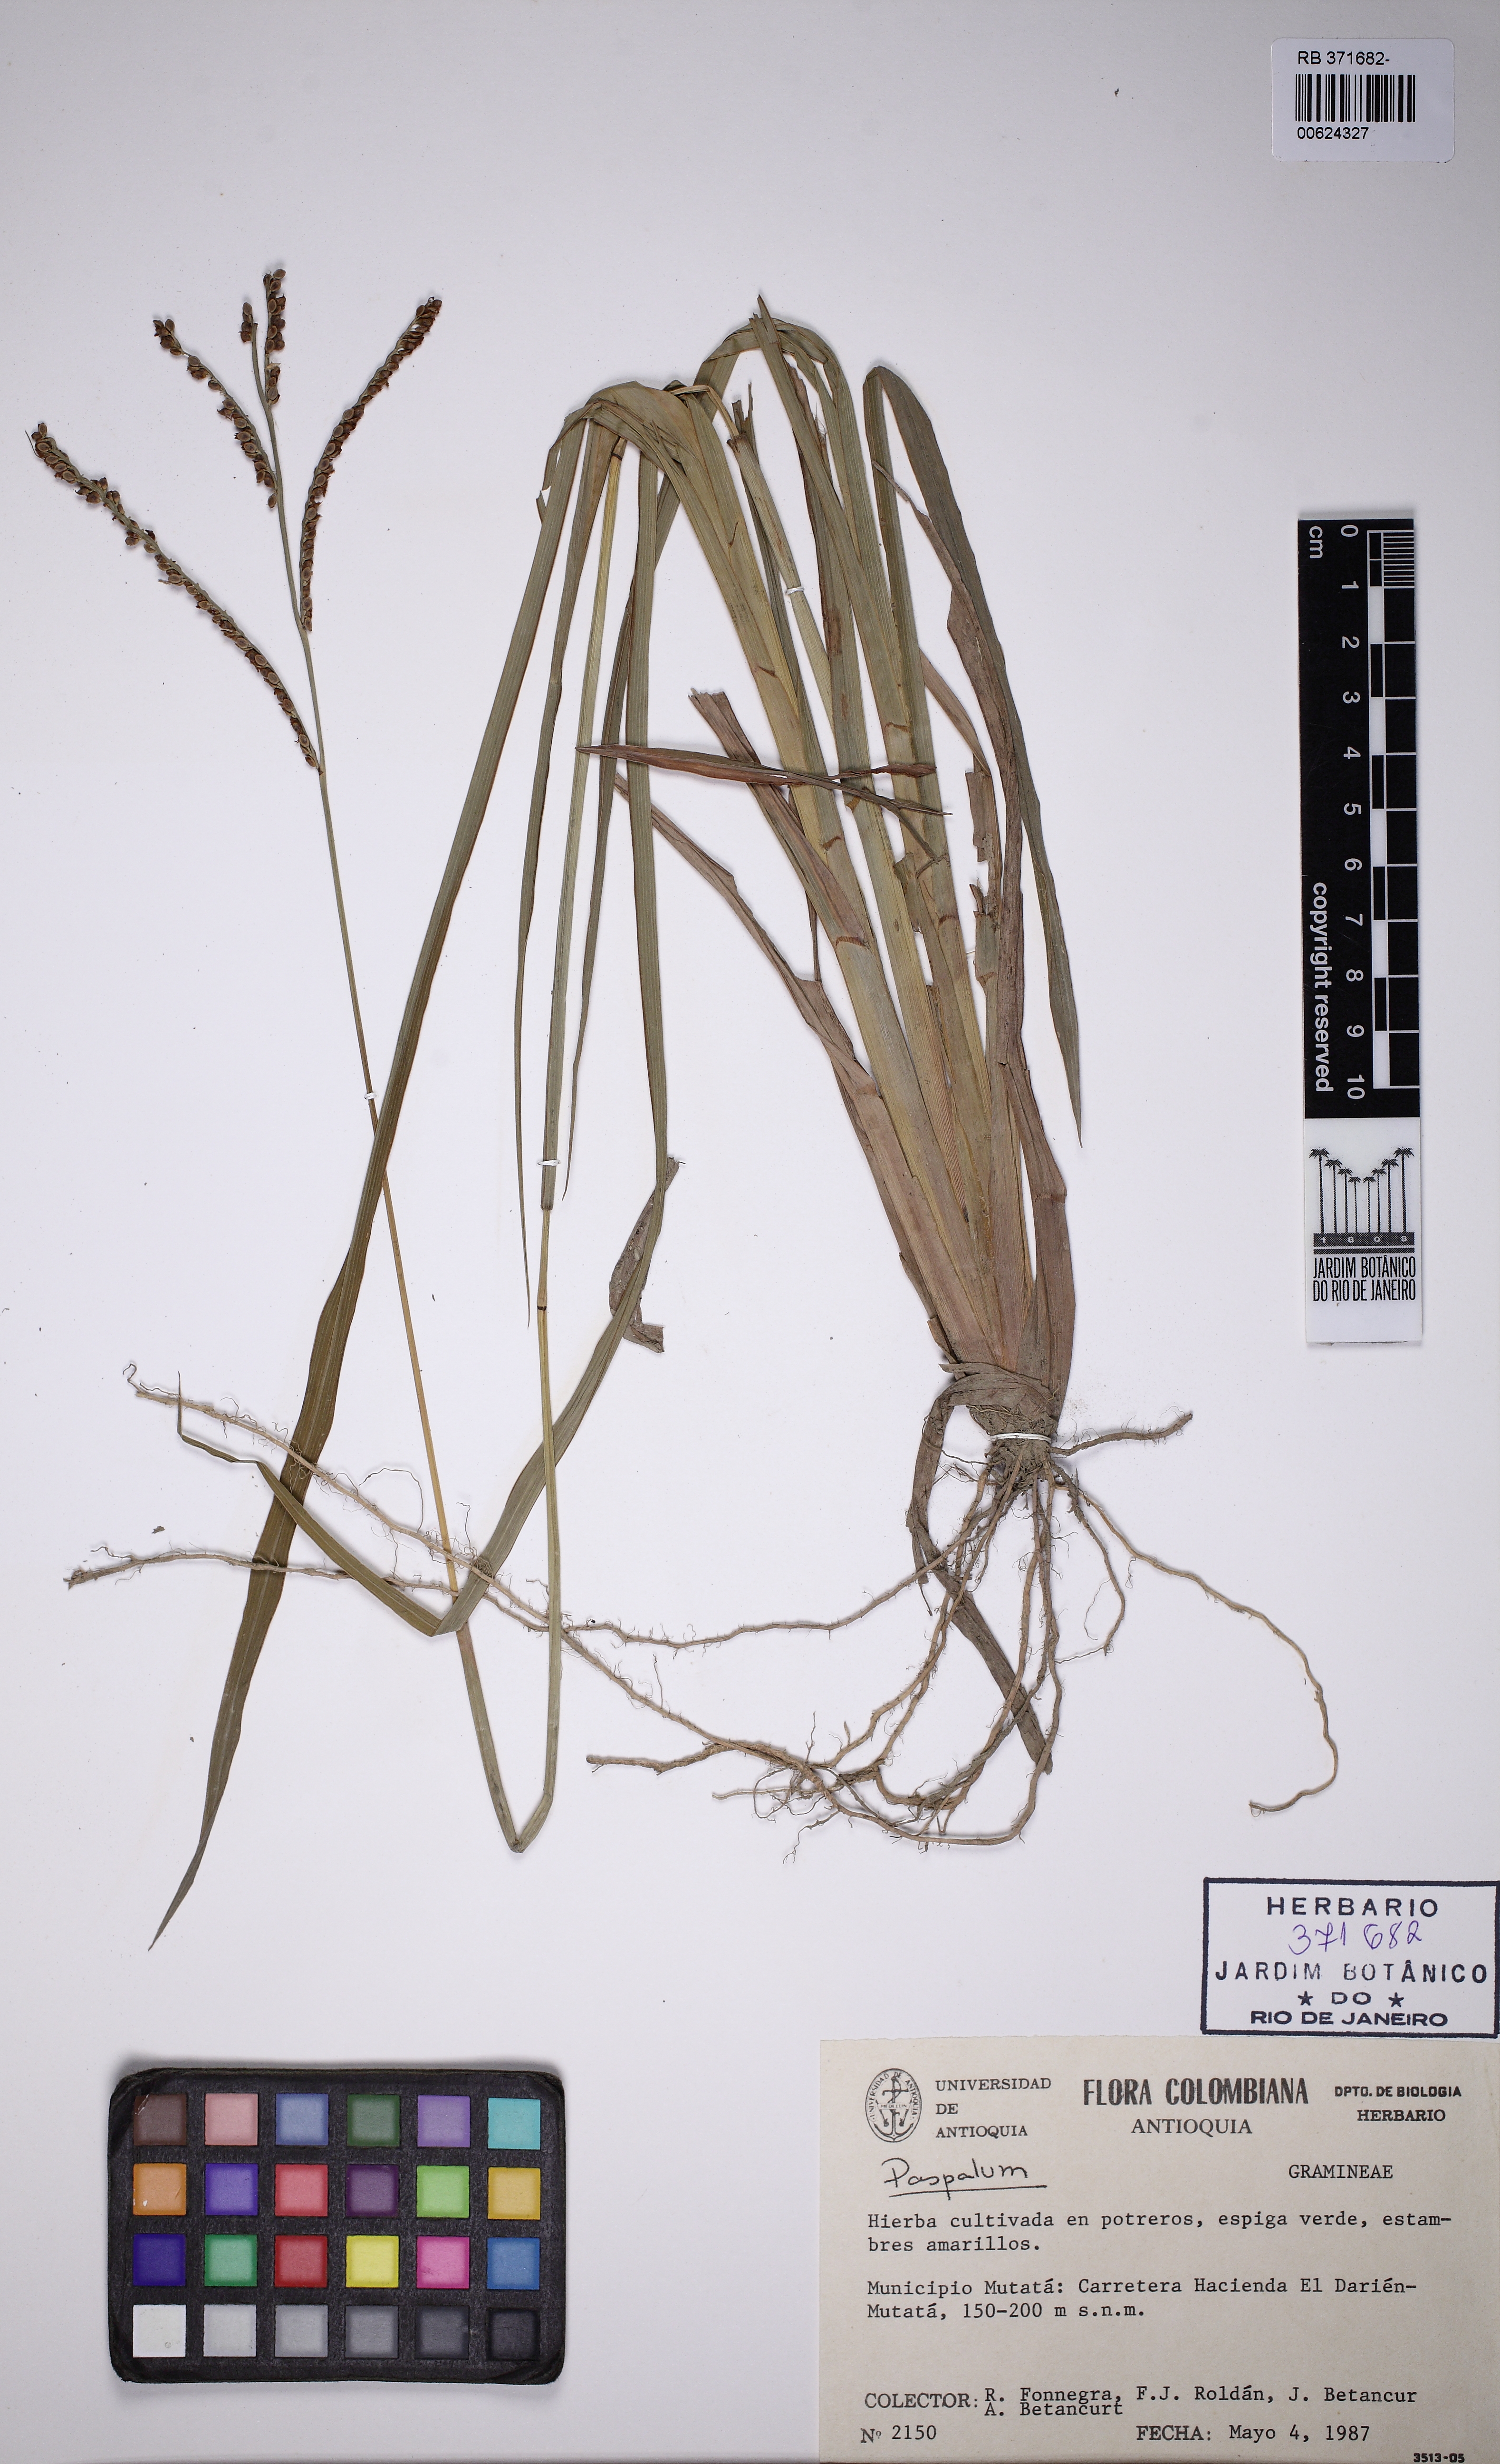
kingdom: Plantae
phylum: Tracheophyta
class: Liliopsida
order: Poales
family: Poaceae
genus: Paspalum
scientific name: Paspalum
